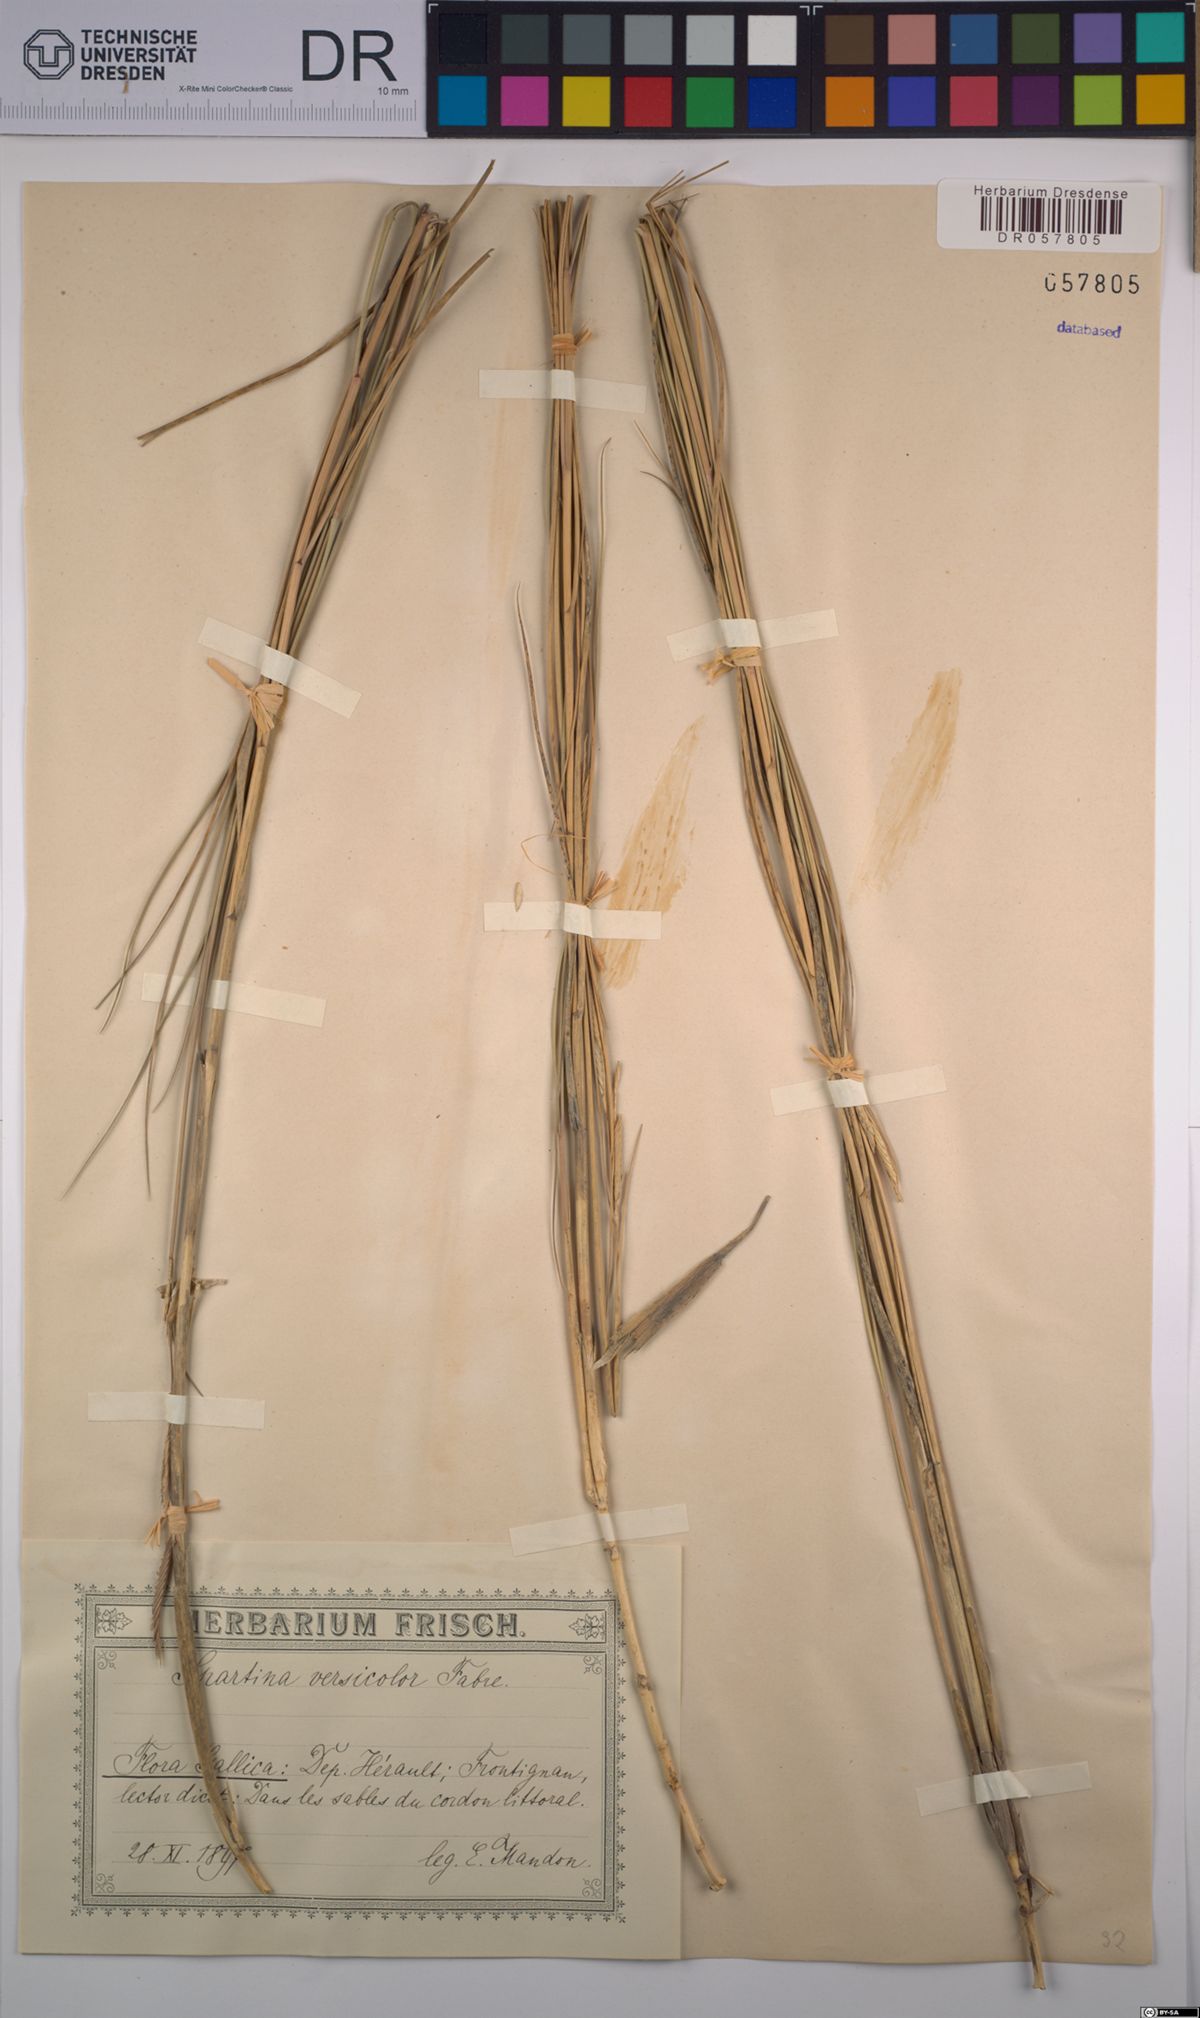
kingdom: Plantae
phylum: Tracheophyta
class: Liliopsida
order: Poales
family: Poaceae
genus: Sporobolus
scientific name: Sporobolus versicolor
